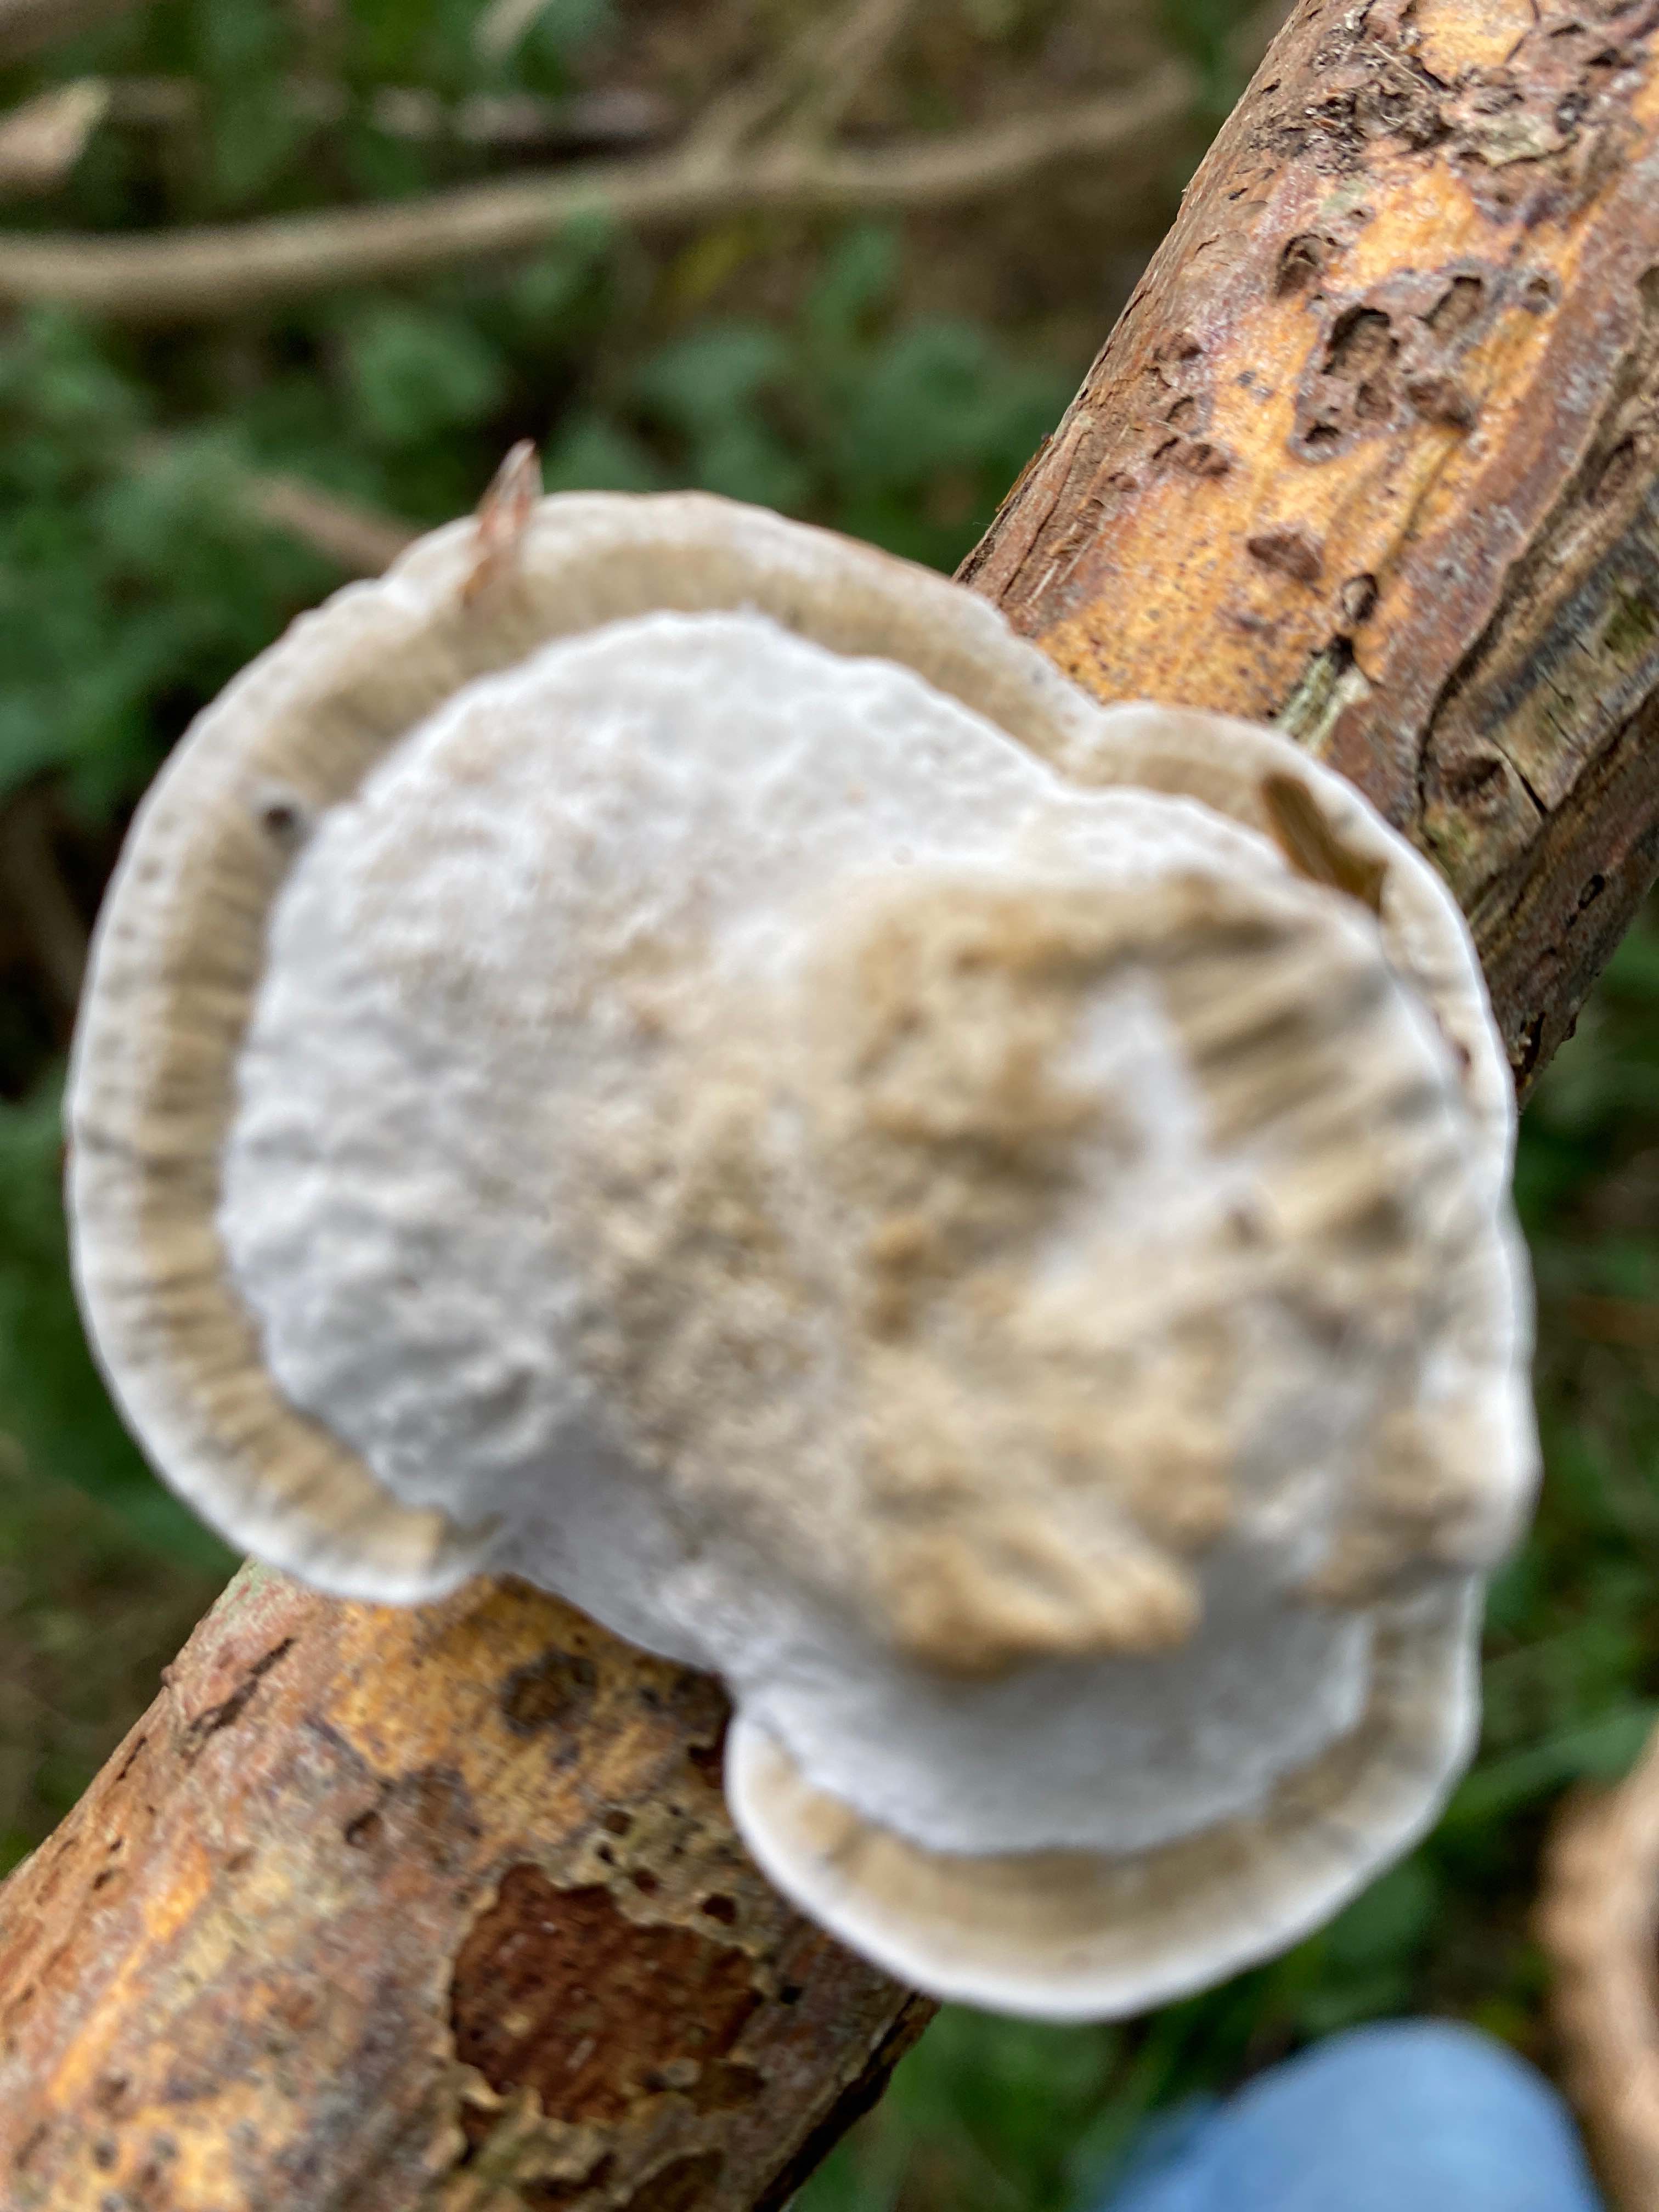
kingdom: Fungi
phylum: Basidiomycota
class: Agaricomycetes
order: Polyporales
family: Polyporaceae
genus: Daedaleopsis
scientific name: Daedaleopsis confragosa
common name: rødmende læderporesvamp
